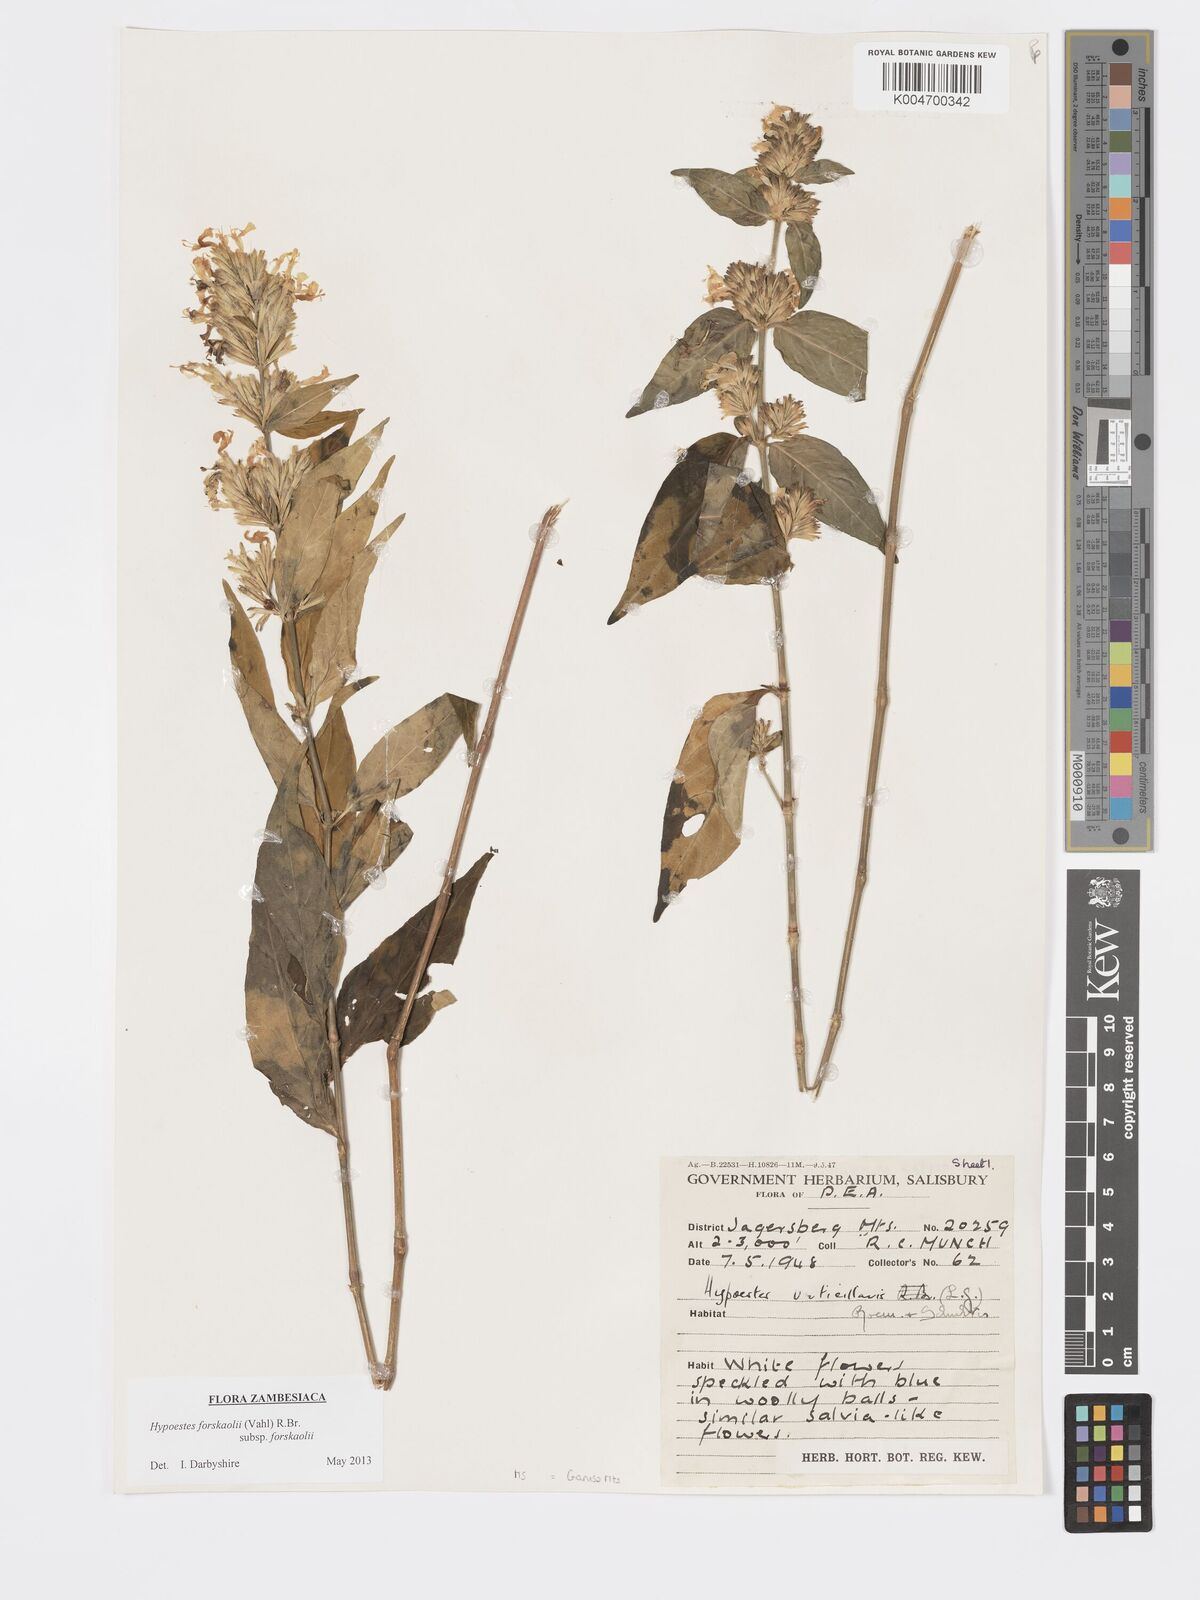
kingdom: Plantae
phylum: Tracheophyta
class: Magnoliopsida
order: Lamiales
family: Acanthaceae
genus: Hypoestes
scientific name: Hypoestes forskaolii
